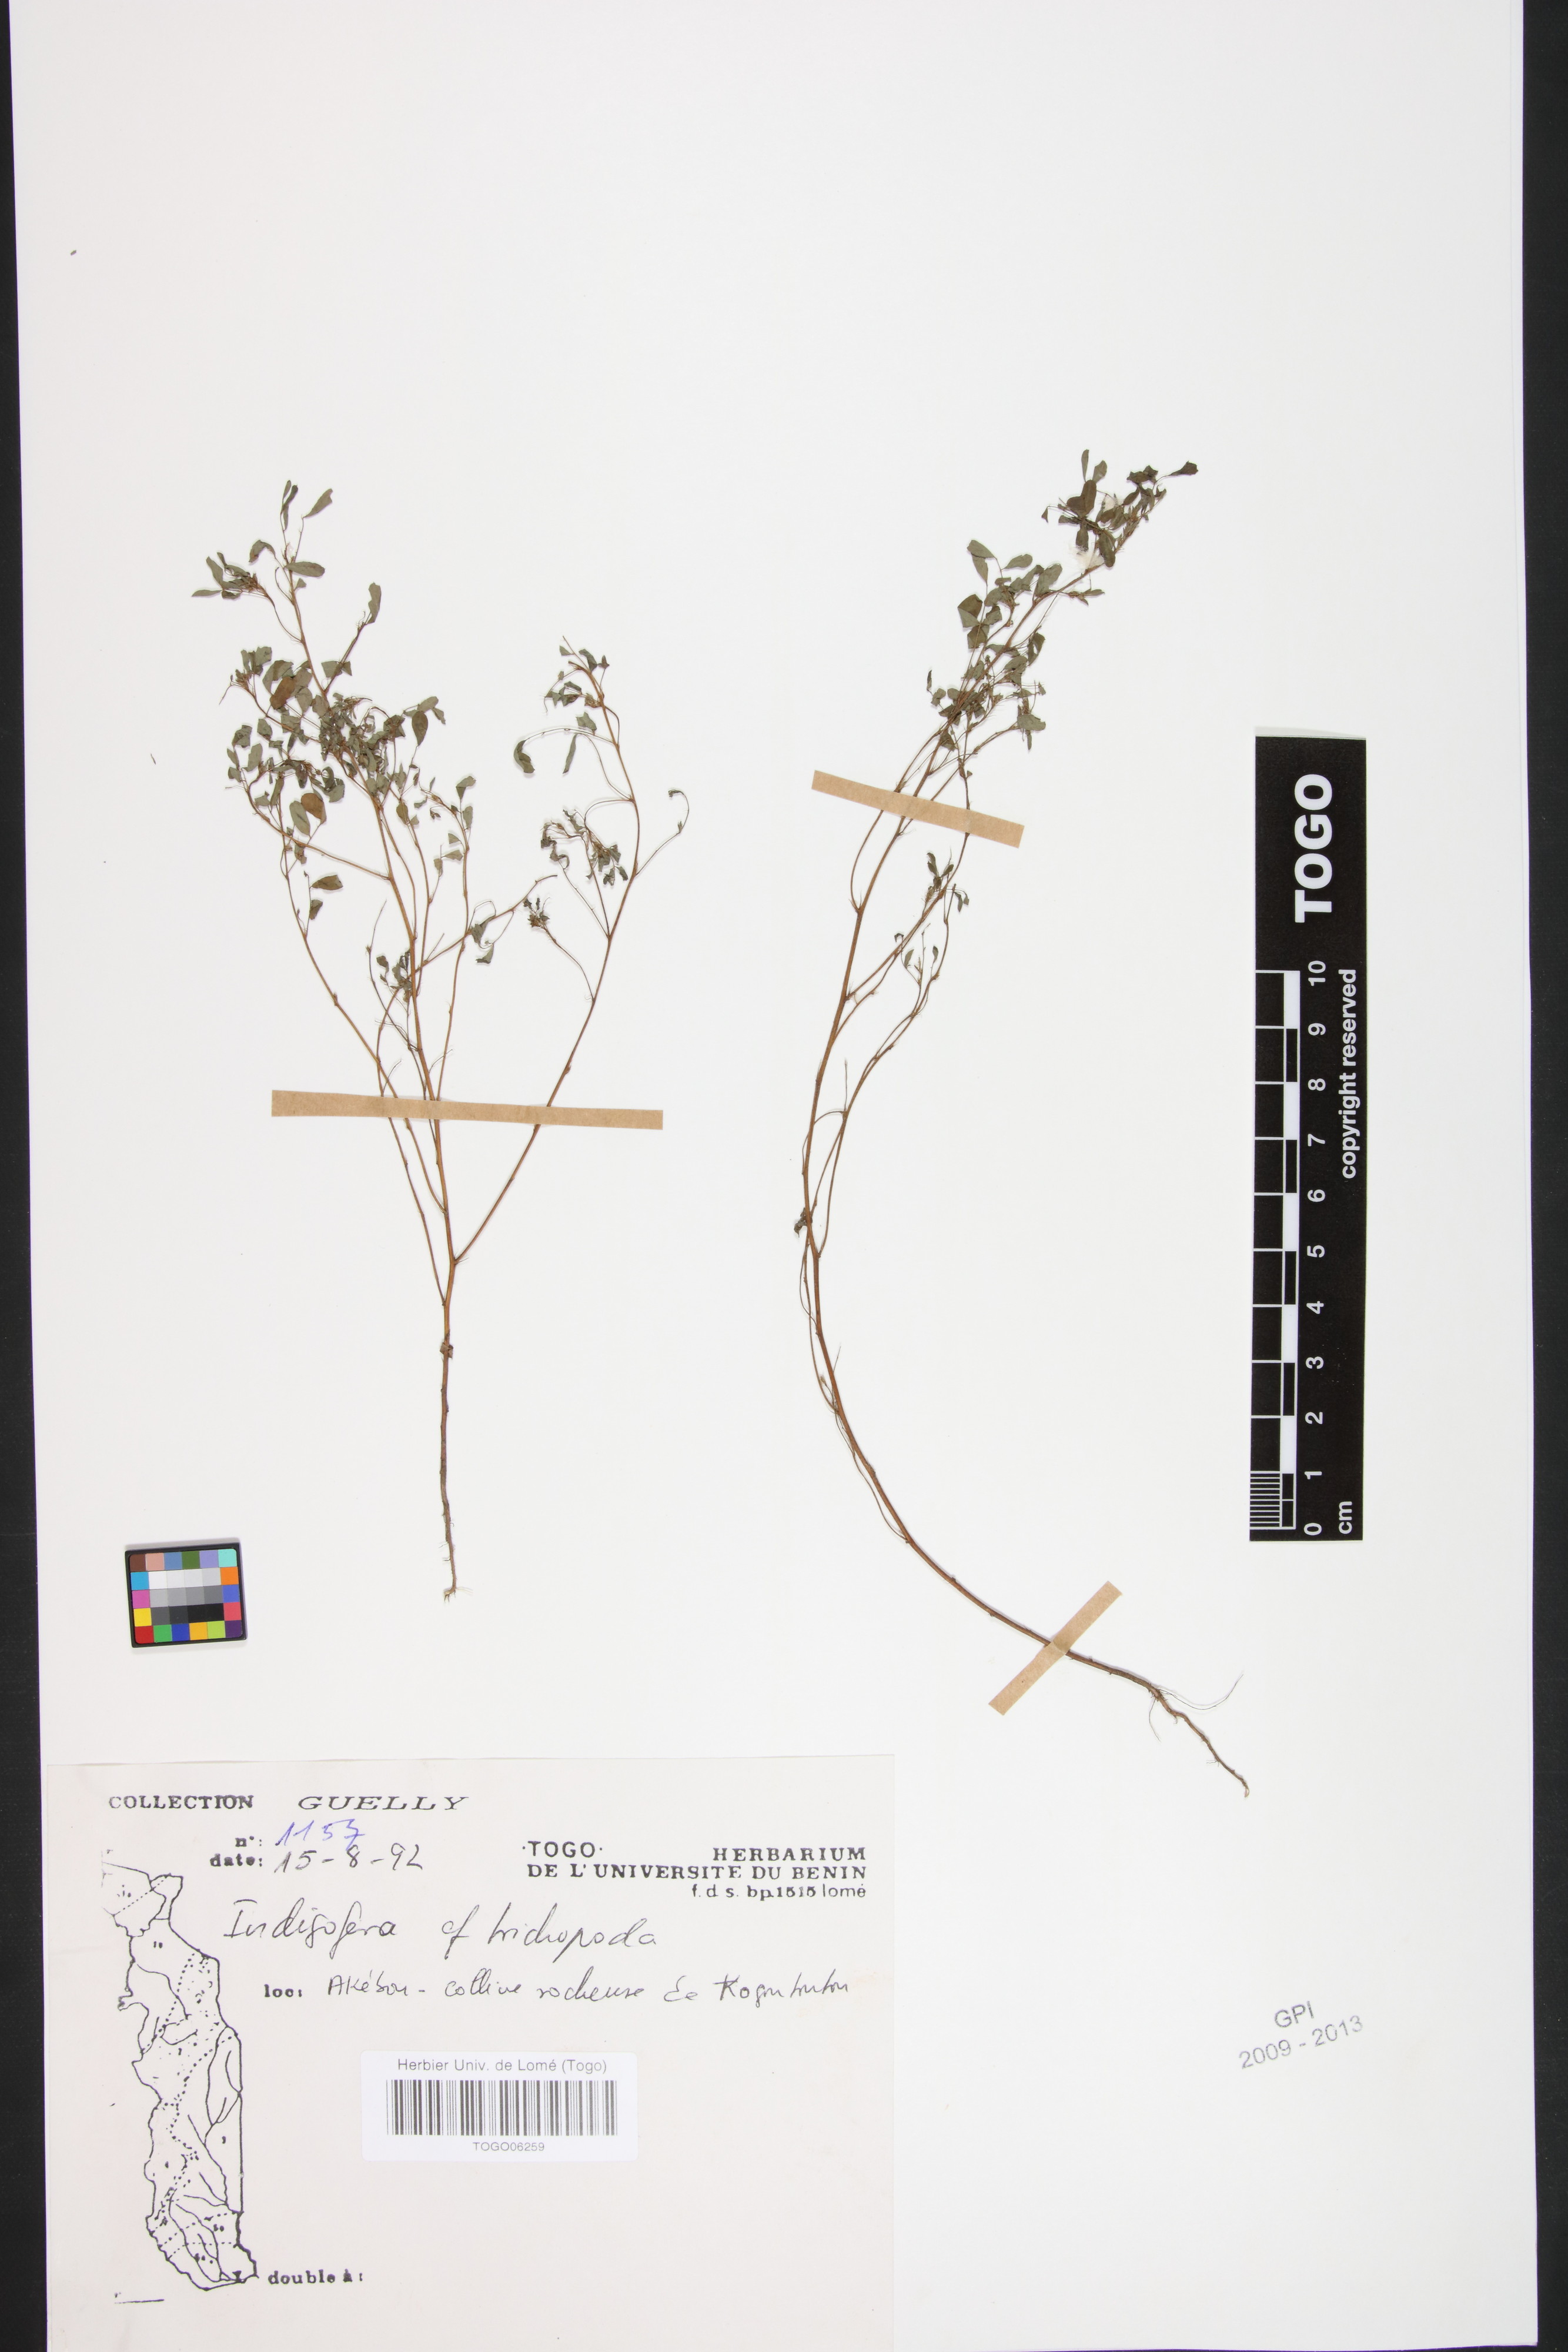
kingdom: Plantae
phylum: Tracheophyta
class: Magnoliopsida
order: Fabales
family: Fabaceae
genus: Indigofera
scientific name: Indigofera trichopoda
